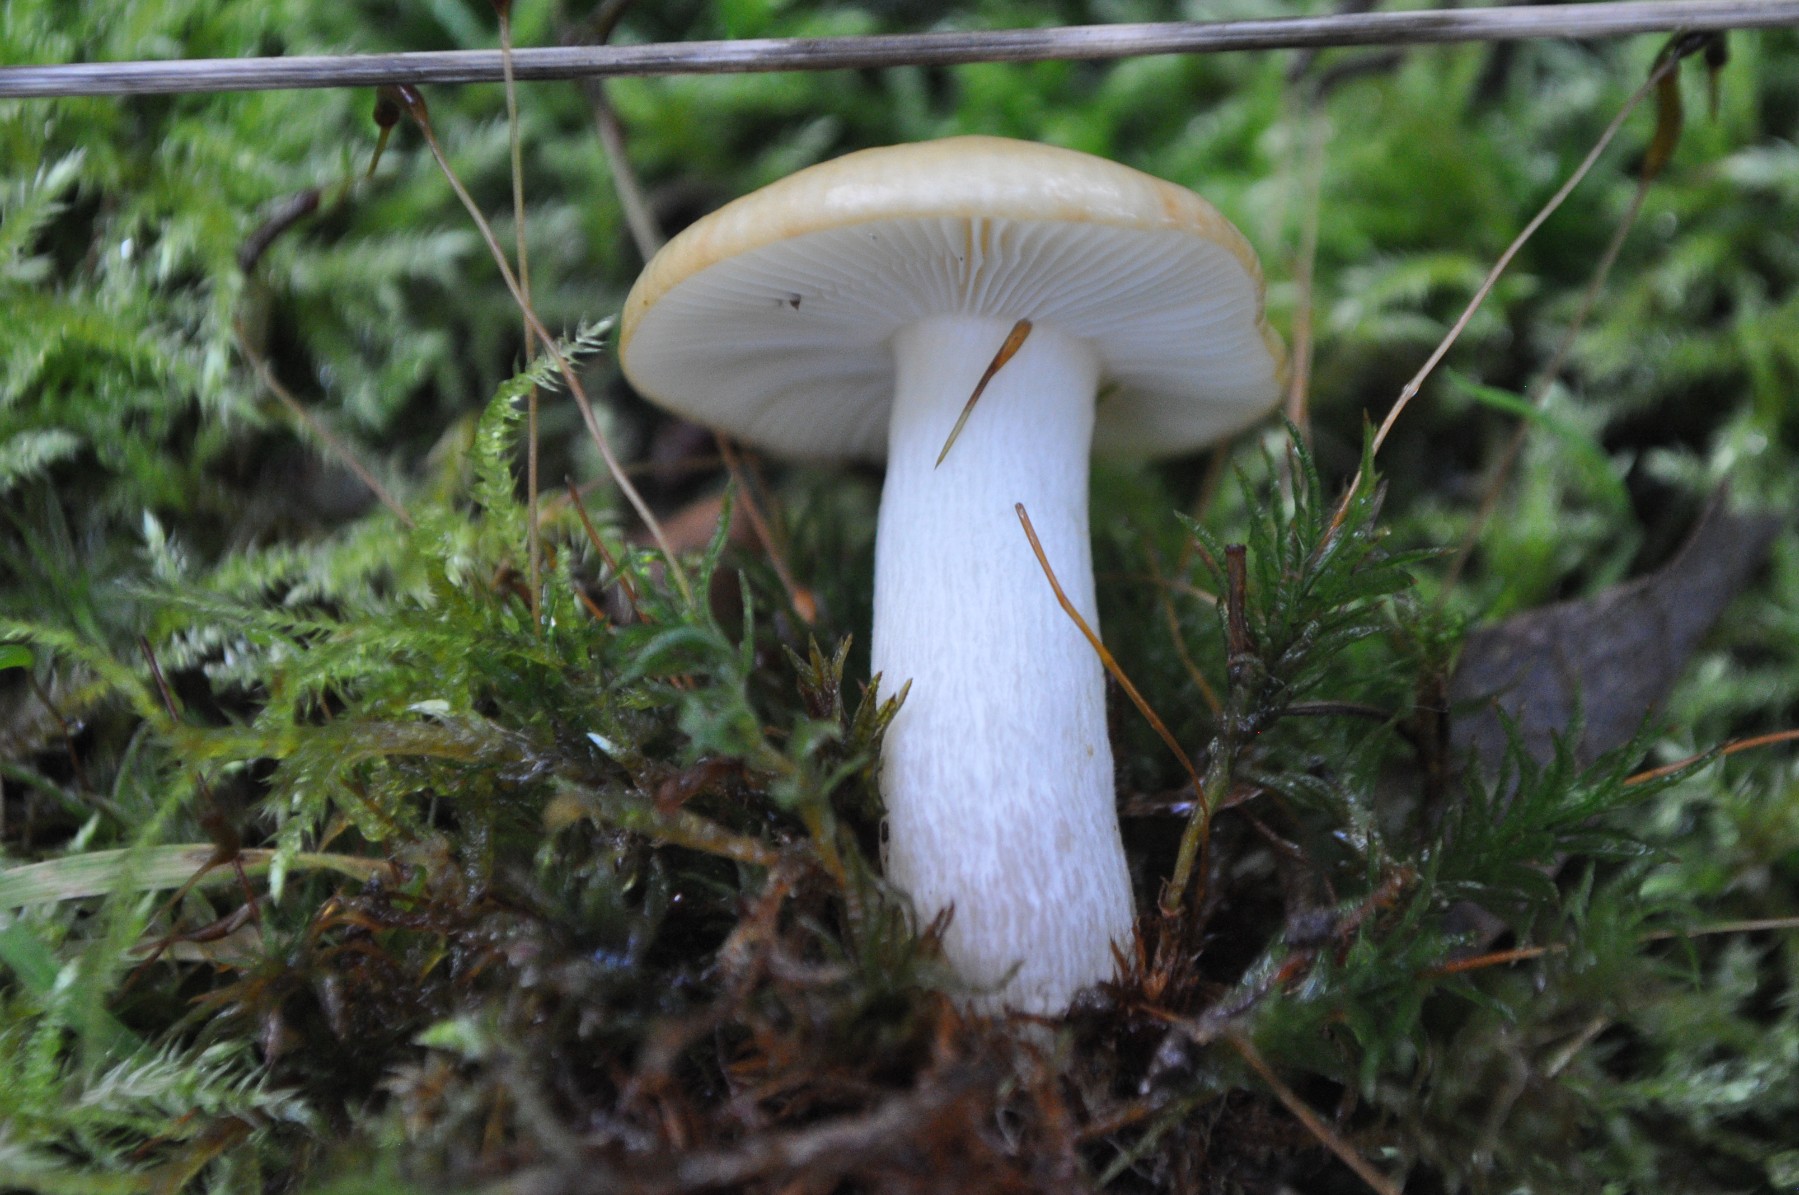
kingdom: Fungi
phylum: Basidiomycota
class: Agaricomycetes
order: Russulales
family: Russulaceae
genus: Russula
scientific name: Russula ochroleuca
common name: okkergul skørhat
